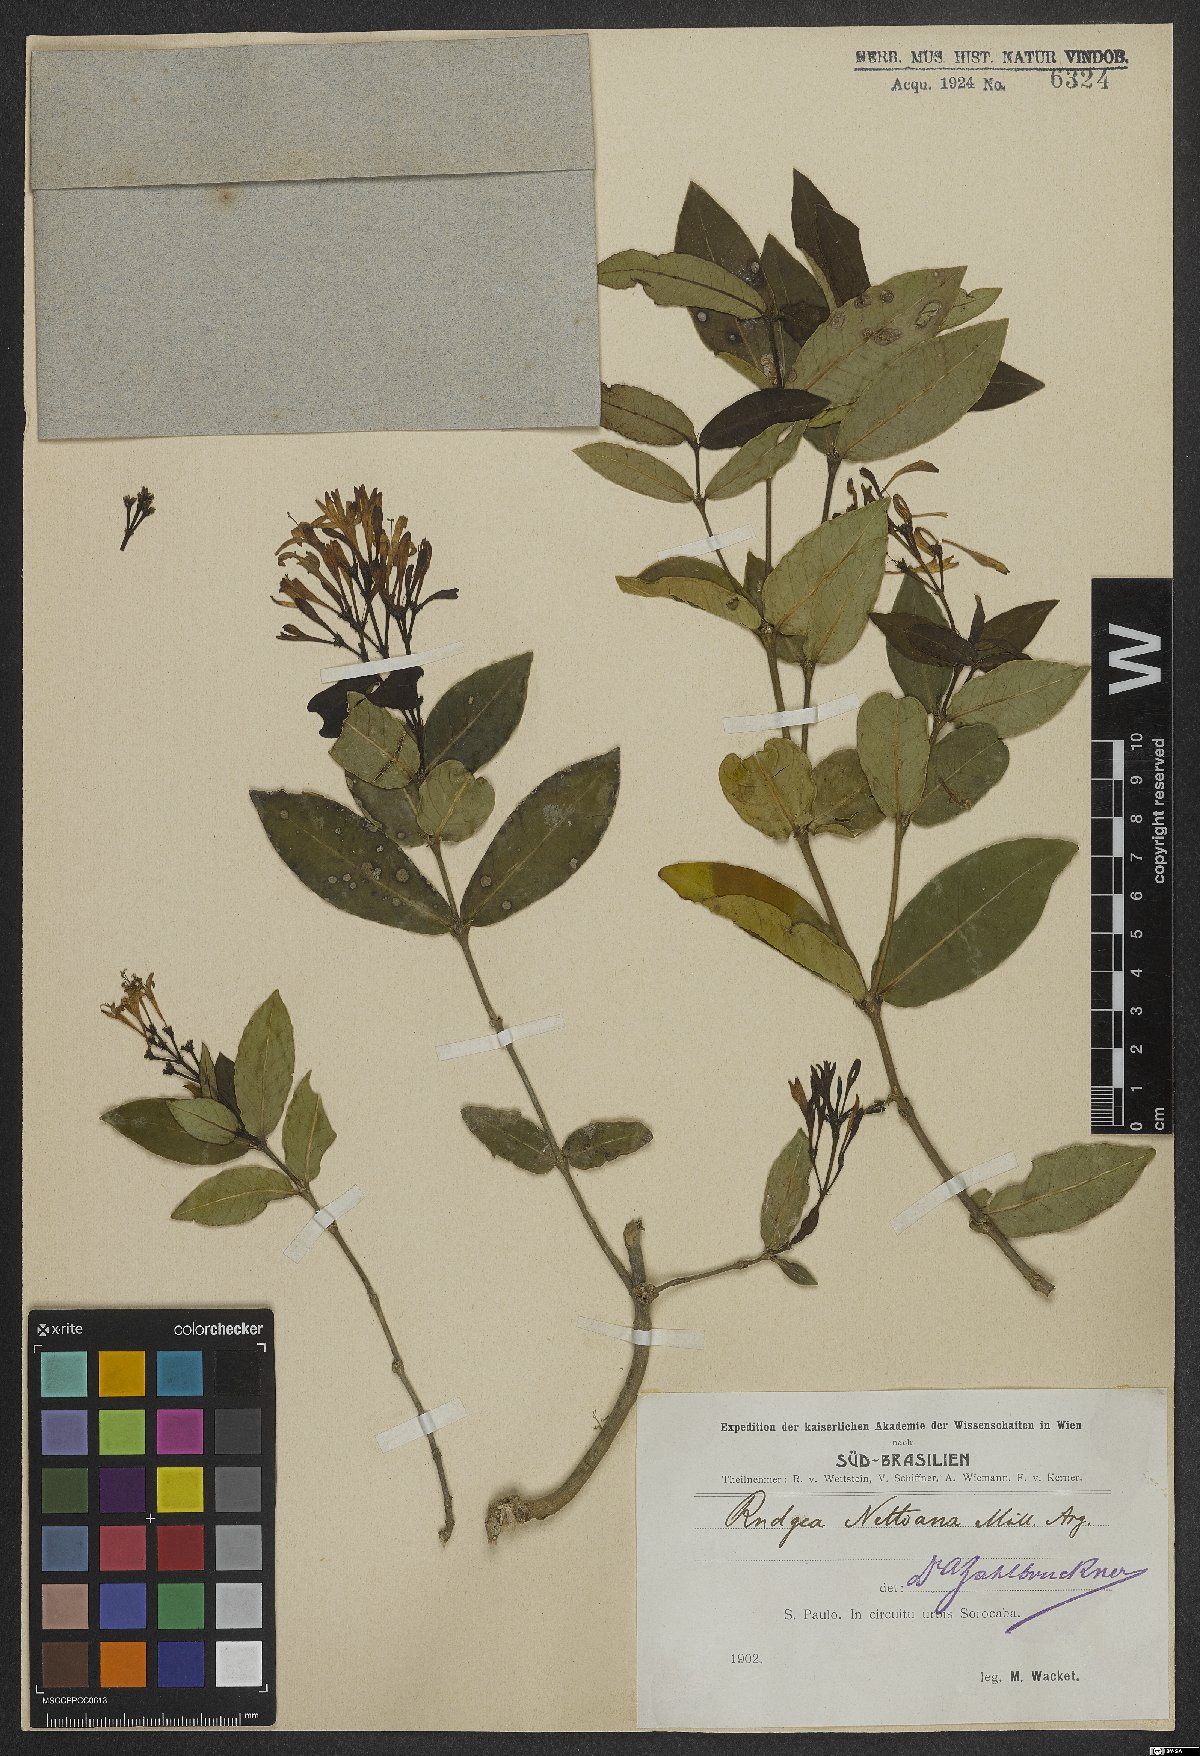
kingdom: Plantae
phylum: Tracheophyta
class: Magnoliopsida
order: Gentianales
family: Rubiaceae
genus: Rudgea
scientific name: Rudgea corymbulosa
